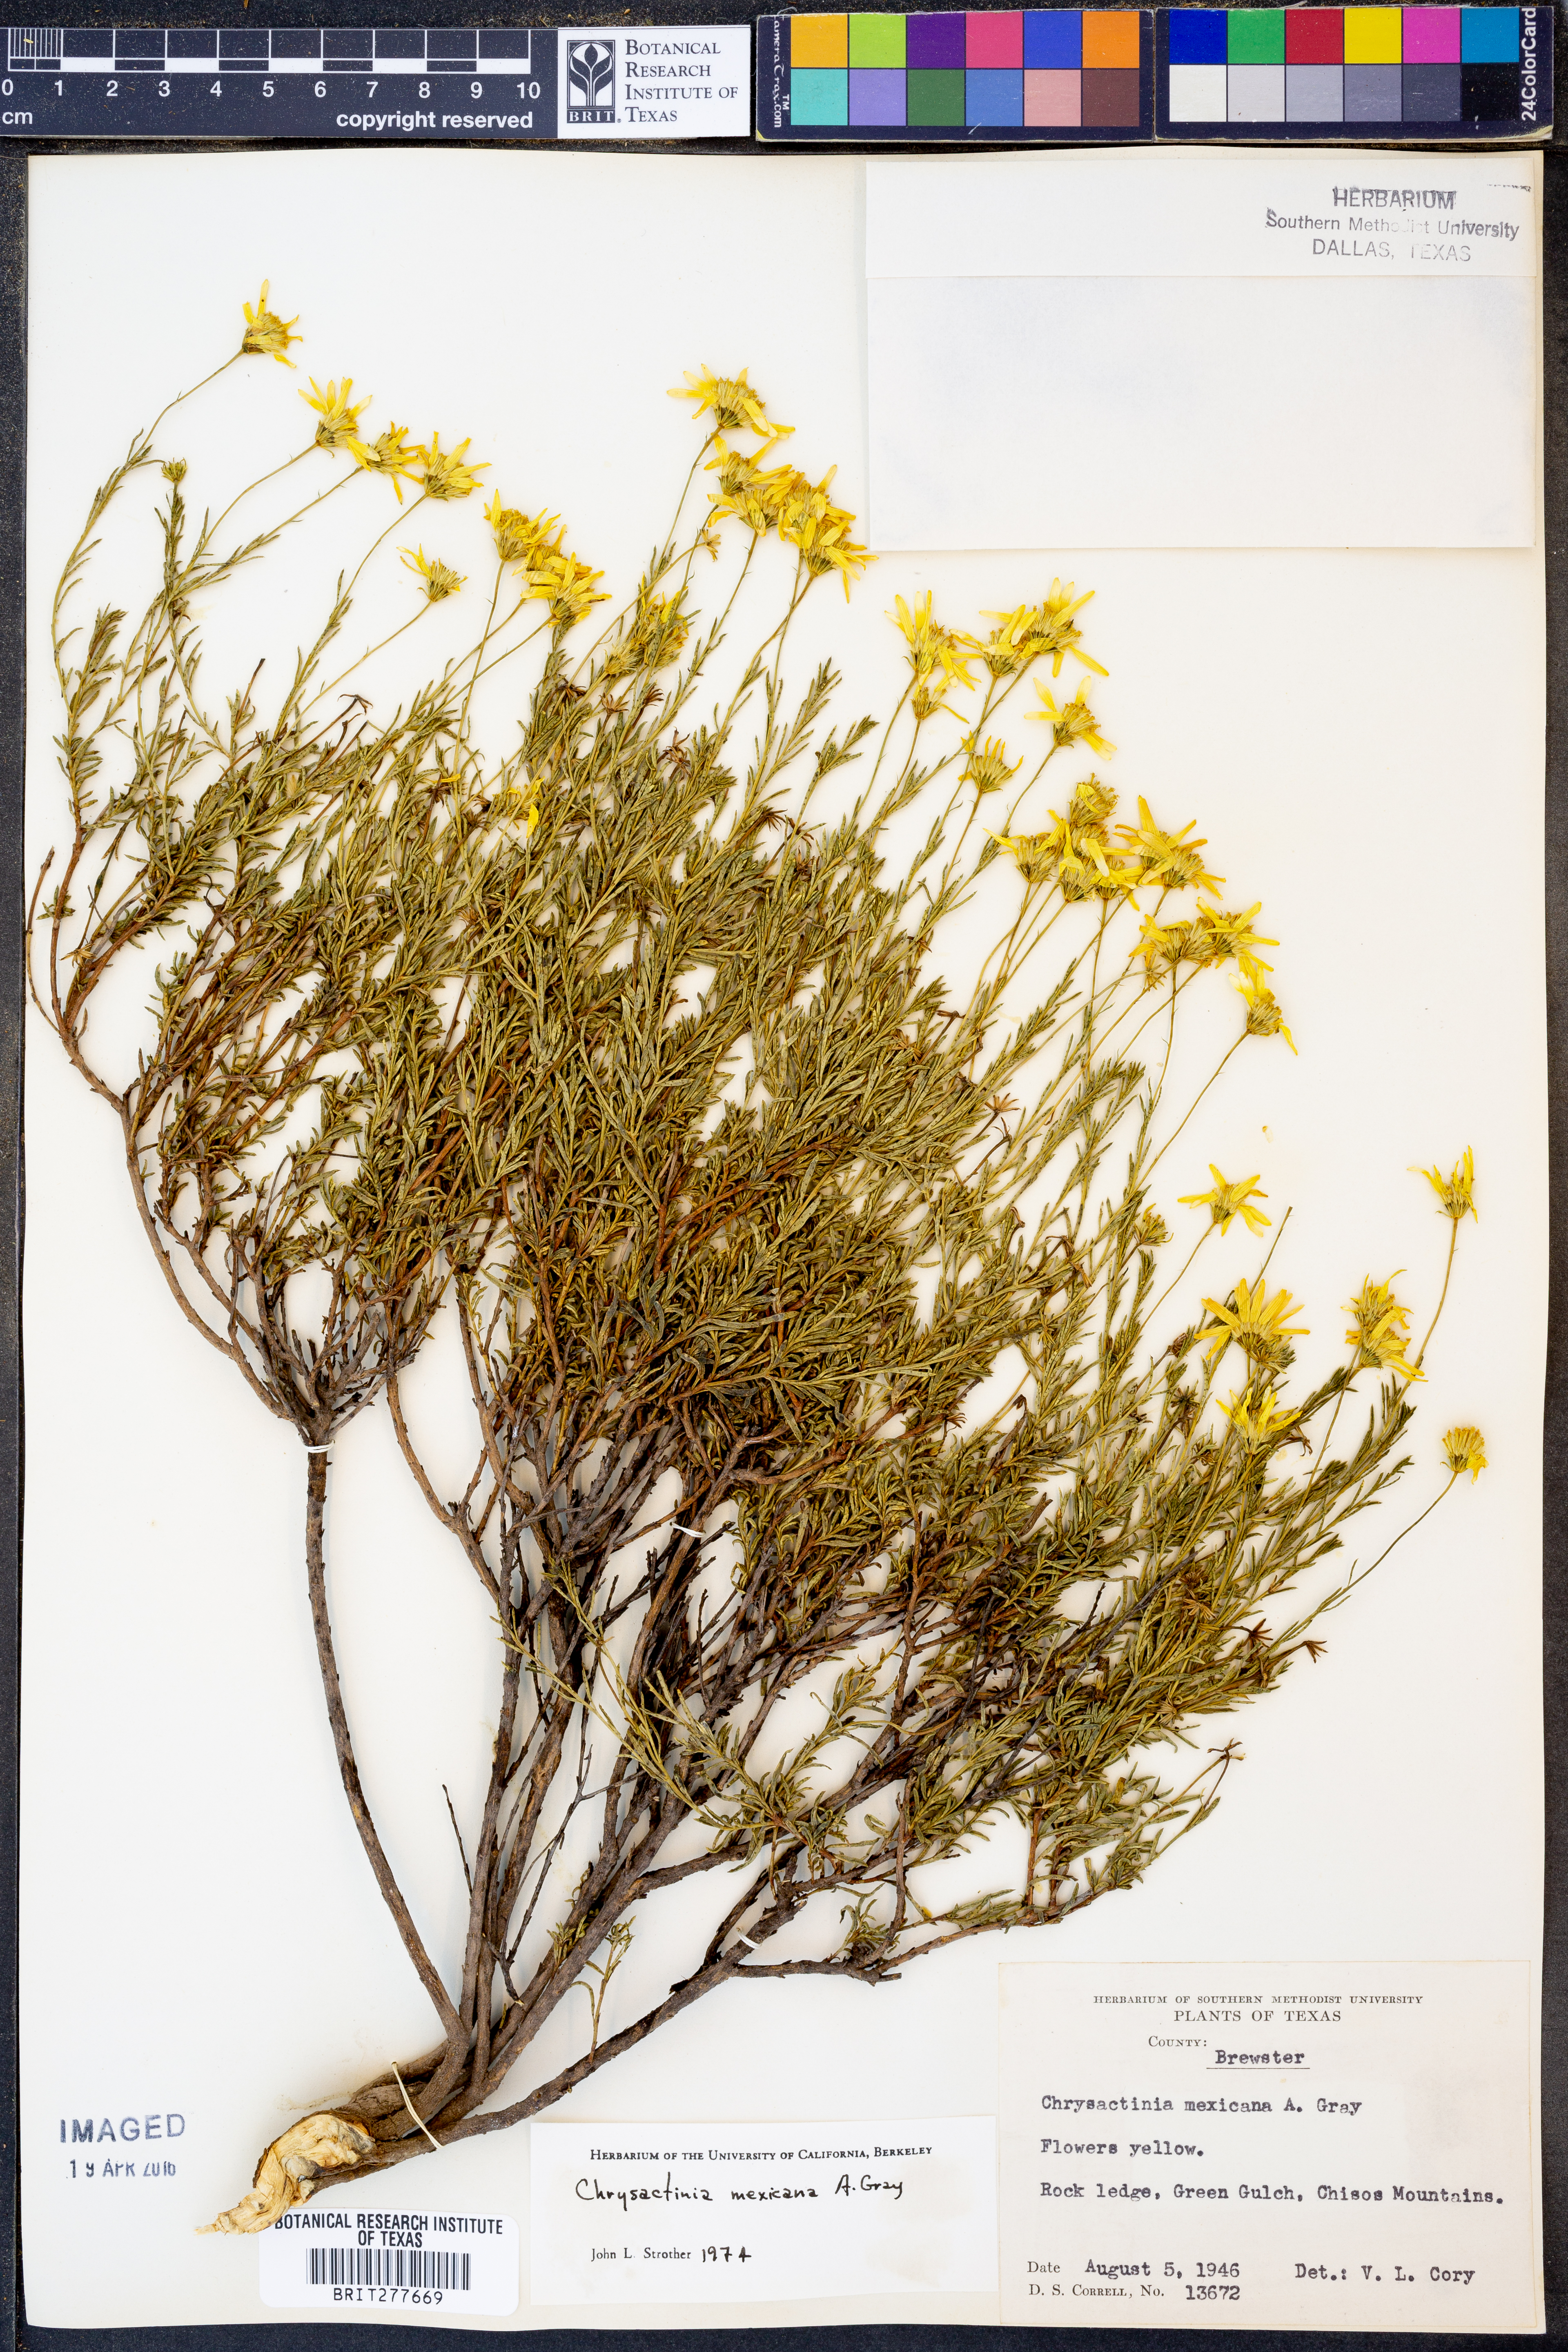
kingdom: Plantae
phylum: Tracheophyta
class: Magnoliopsida
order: Asterales
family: Asteraceae
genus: Chrysactinia
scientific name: Chrysactinia mexicana
